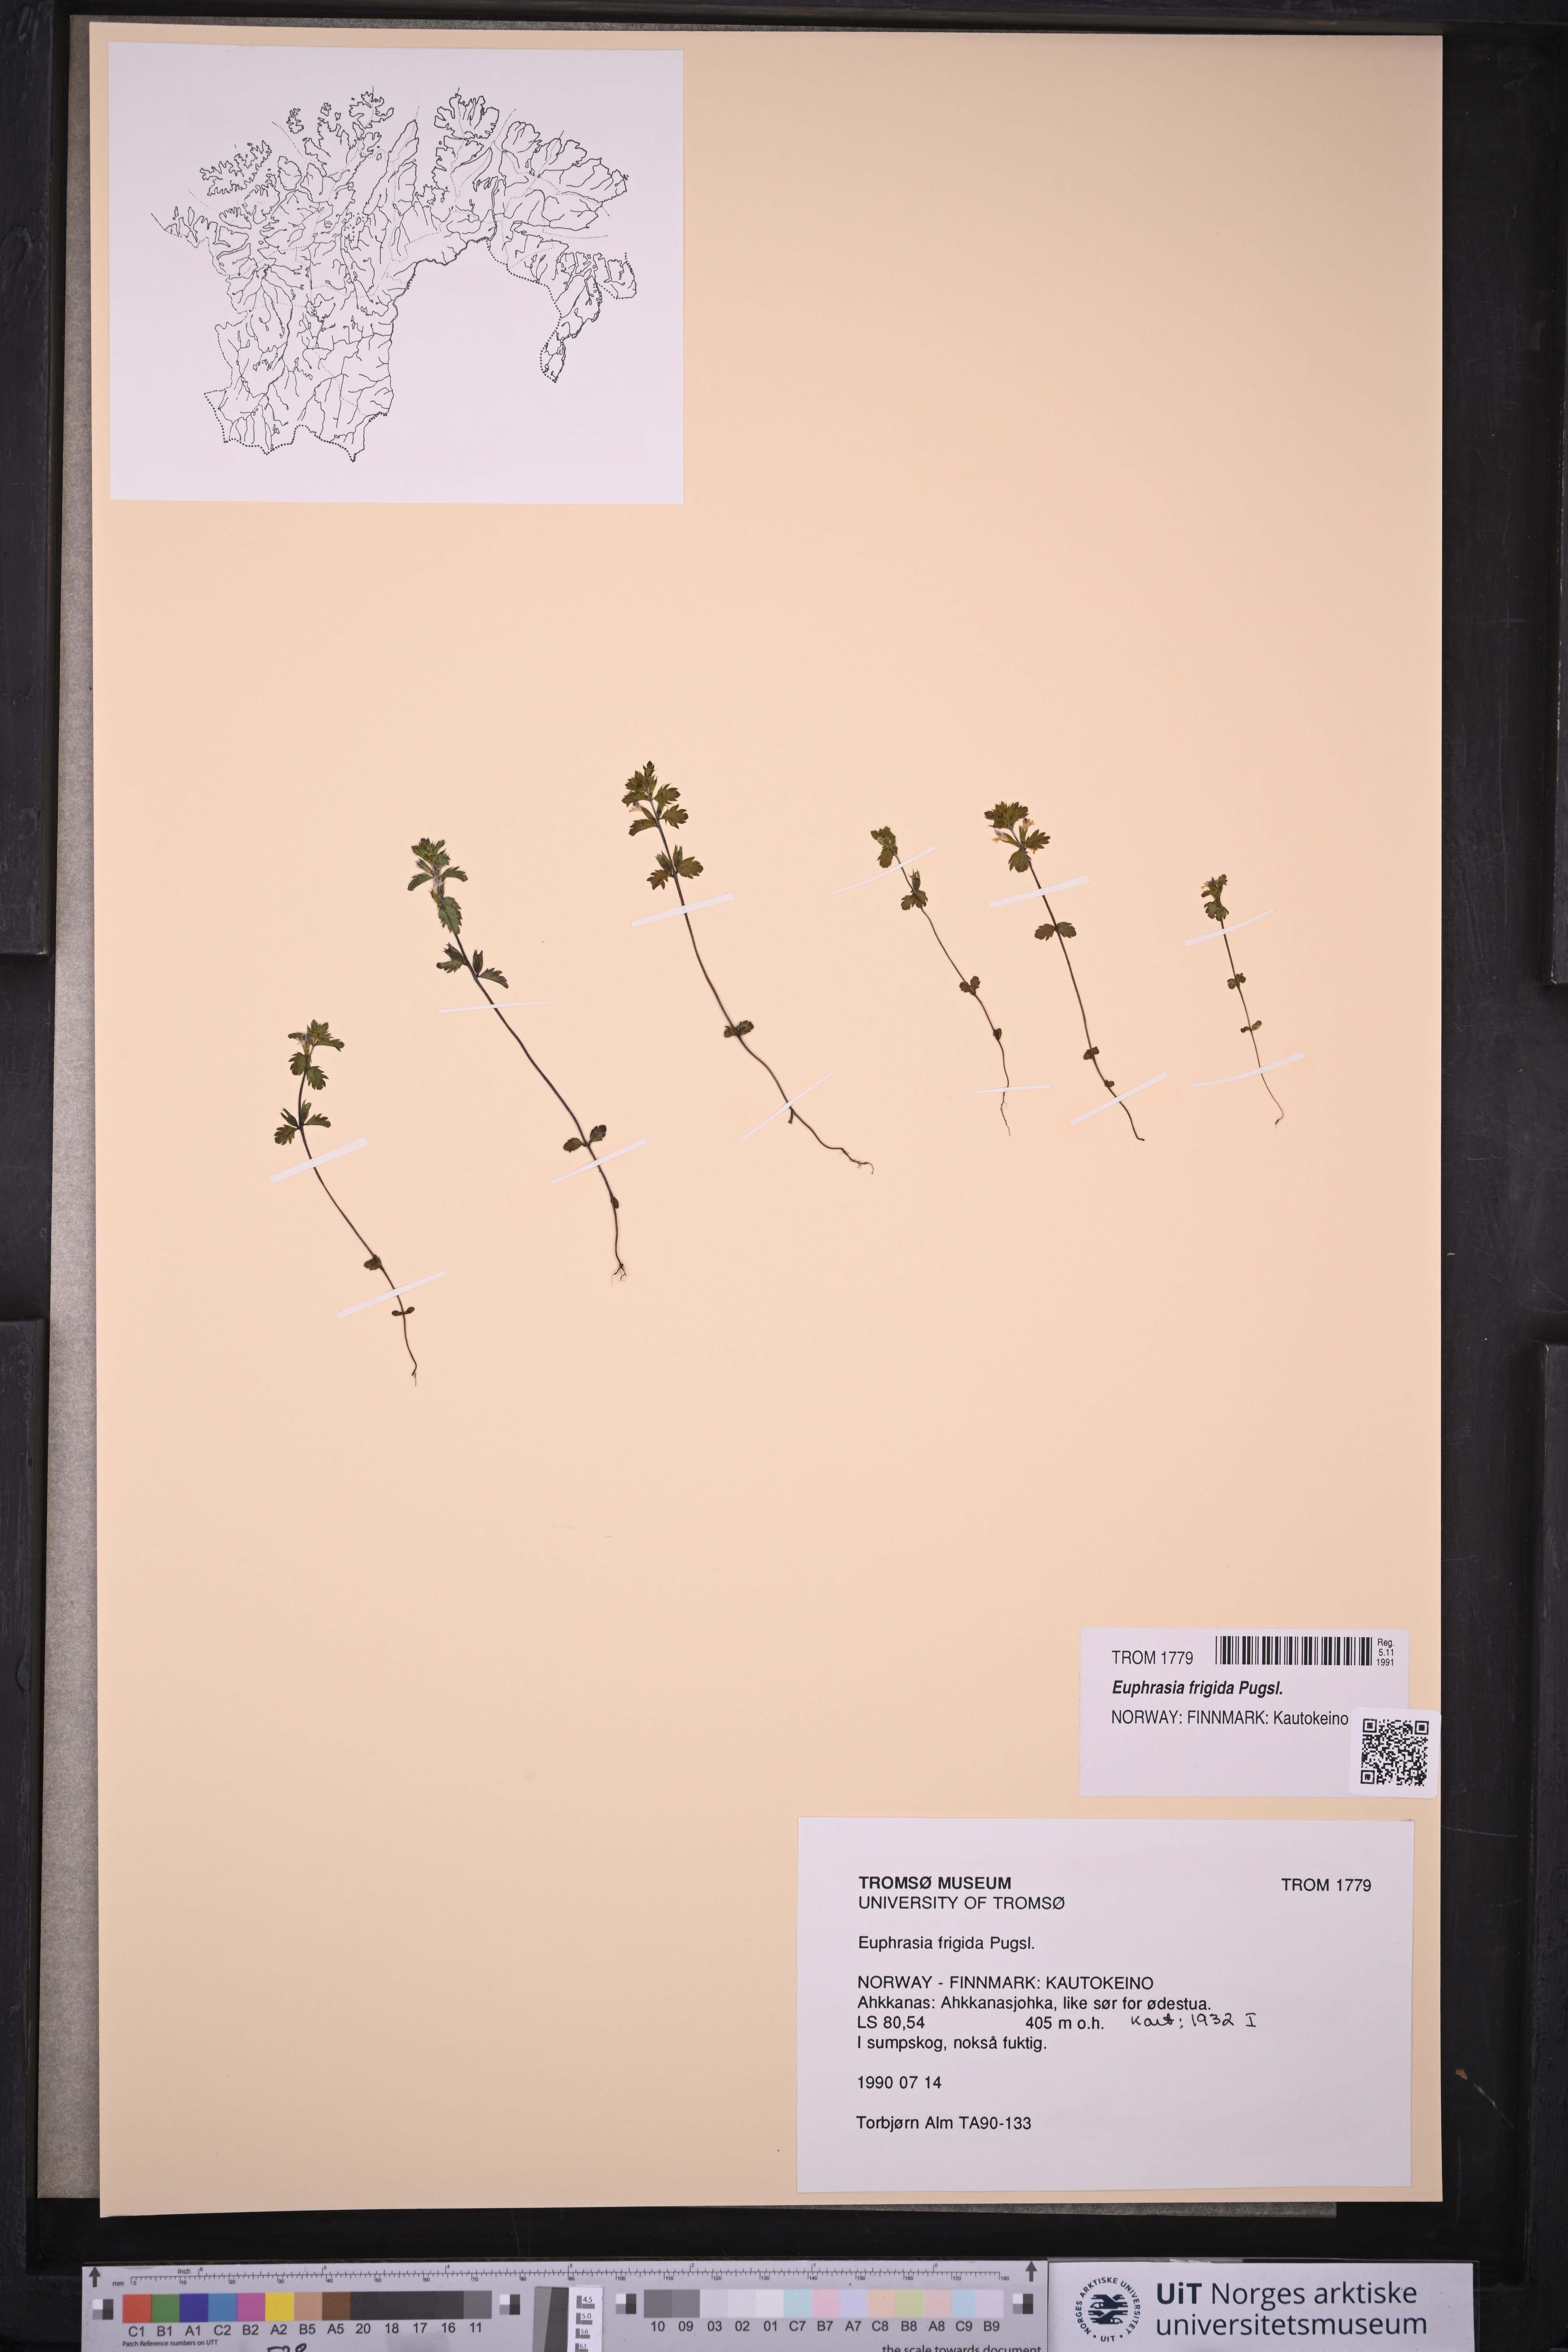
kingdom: Plantae
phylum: Tracheophyta
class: Magnoliopsida
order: Lamiales
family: Orobanchaceae
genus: Euphrasia
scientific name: Euphrasia frigida
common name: An eyebright
